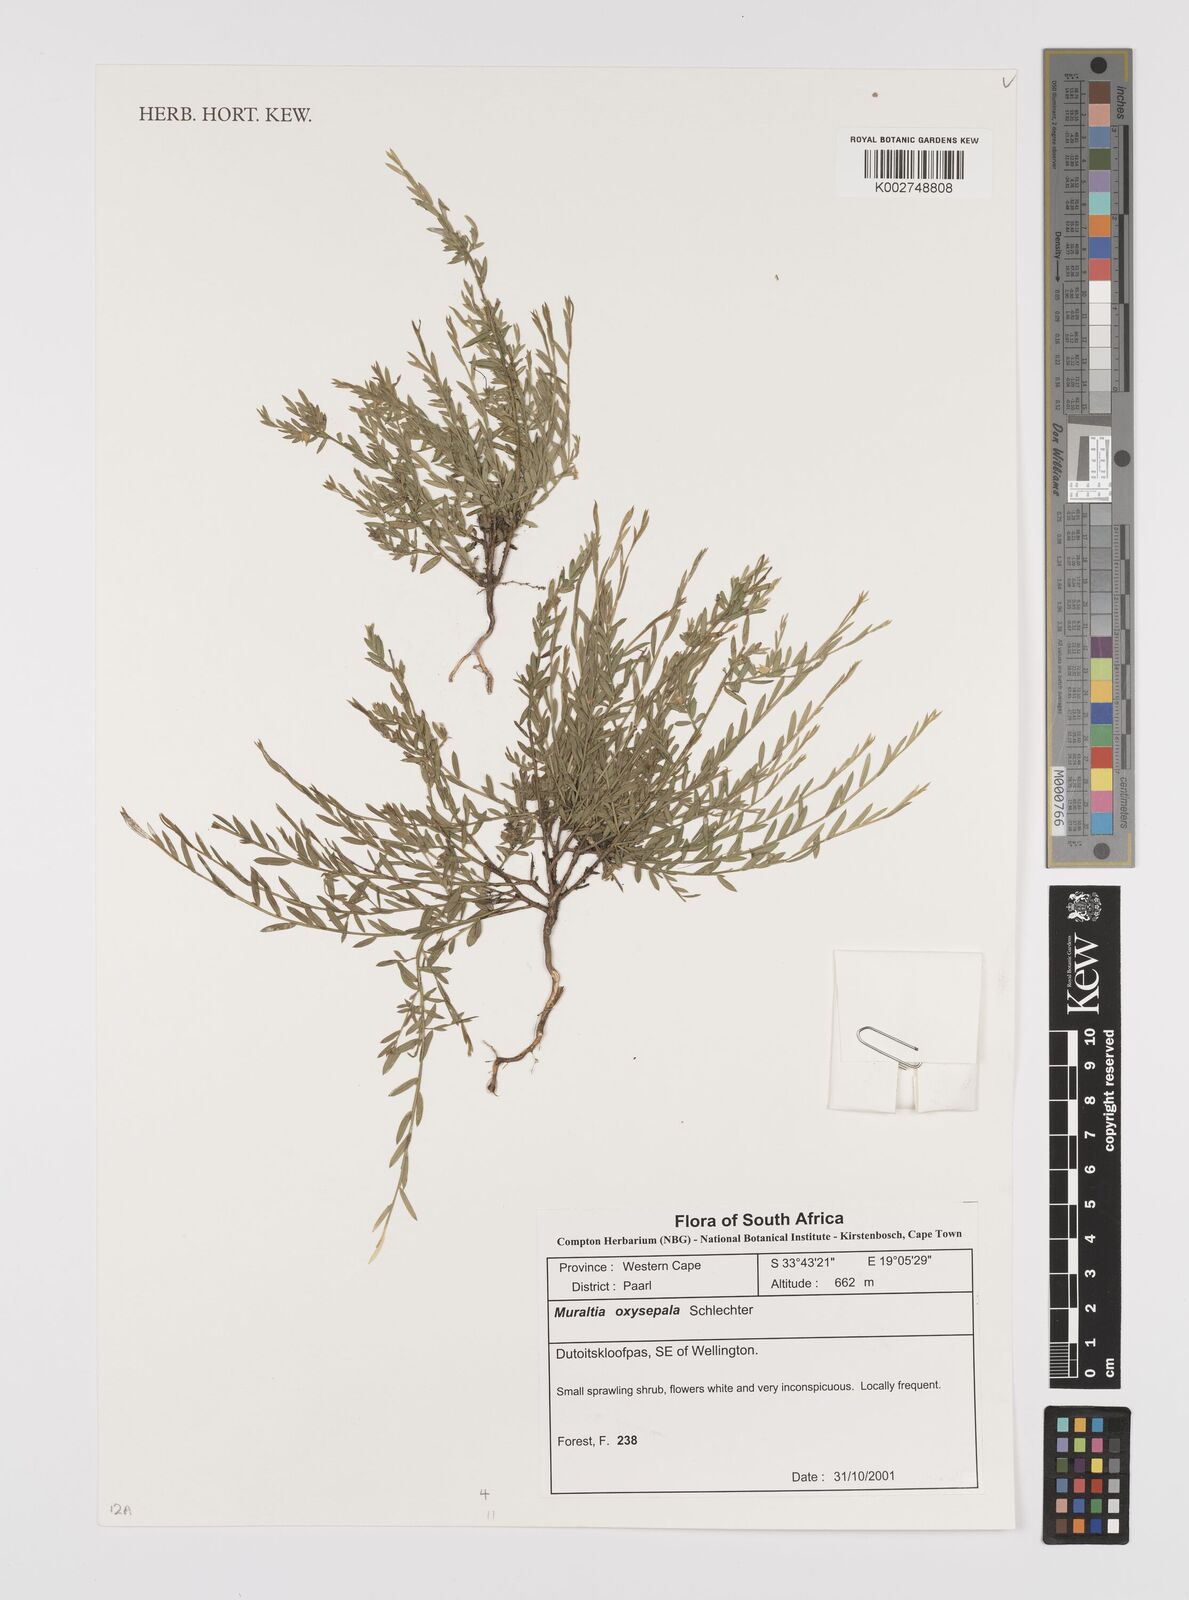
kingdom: Plantae
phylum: Tracheophyta
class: Magnoliopsida
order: Fabales
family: Polygalaceae
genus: Muraltia
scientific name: Muraltia oxysepala
